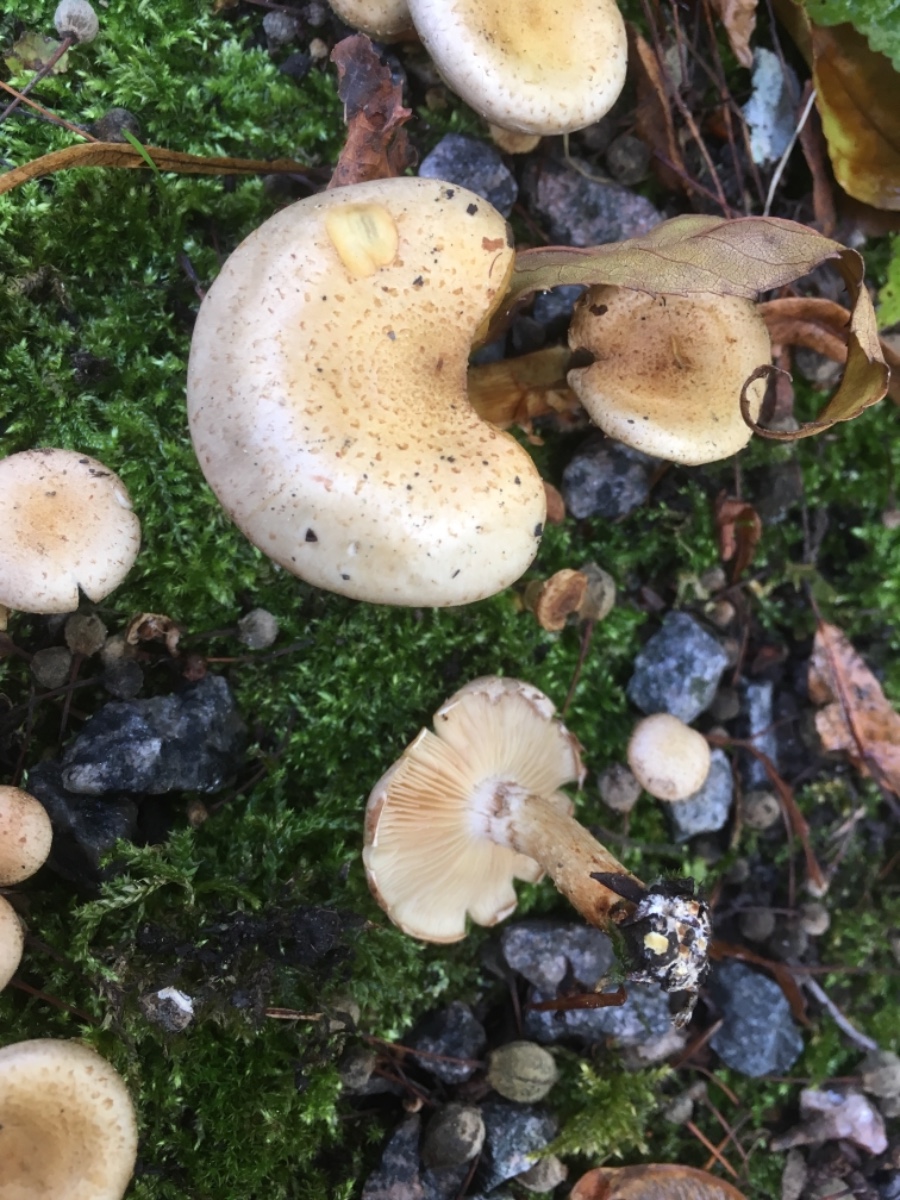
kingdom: Fungi
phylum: Basidiomycota
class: Agaricomycetes
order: Agaricales
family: Strophariaceae
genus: Pholiota
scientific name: Pholiota gummosa
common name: grøngul skælhat
